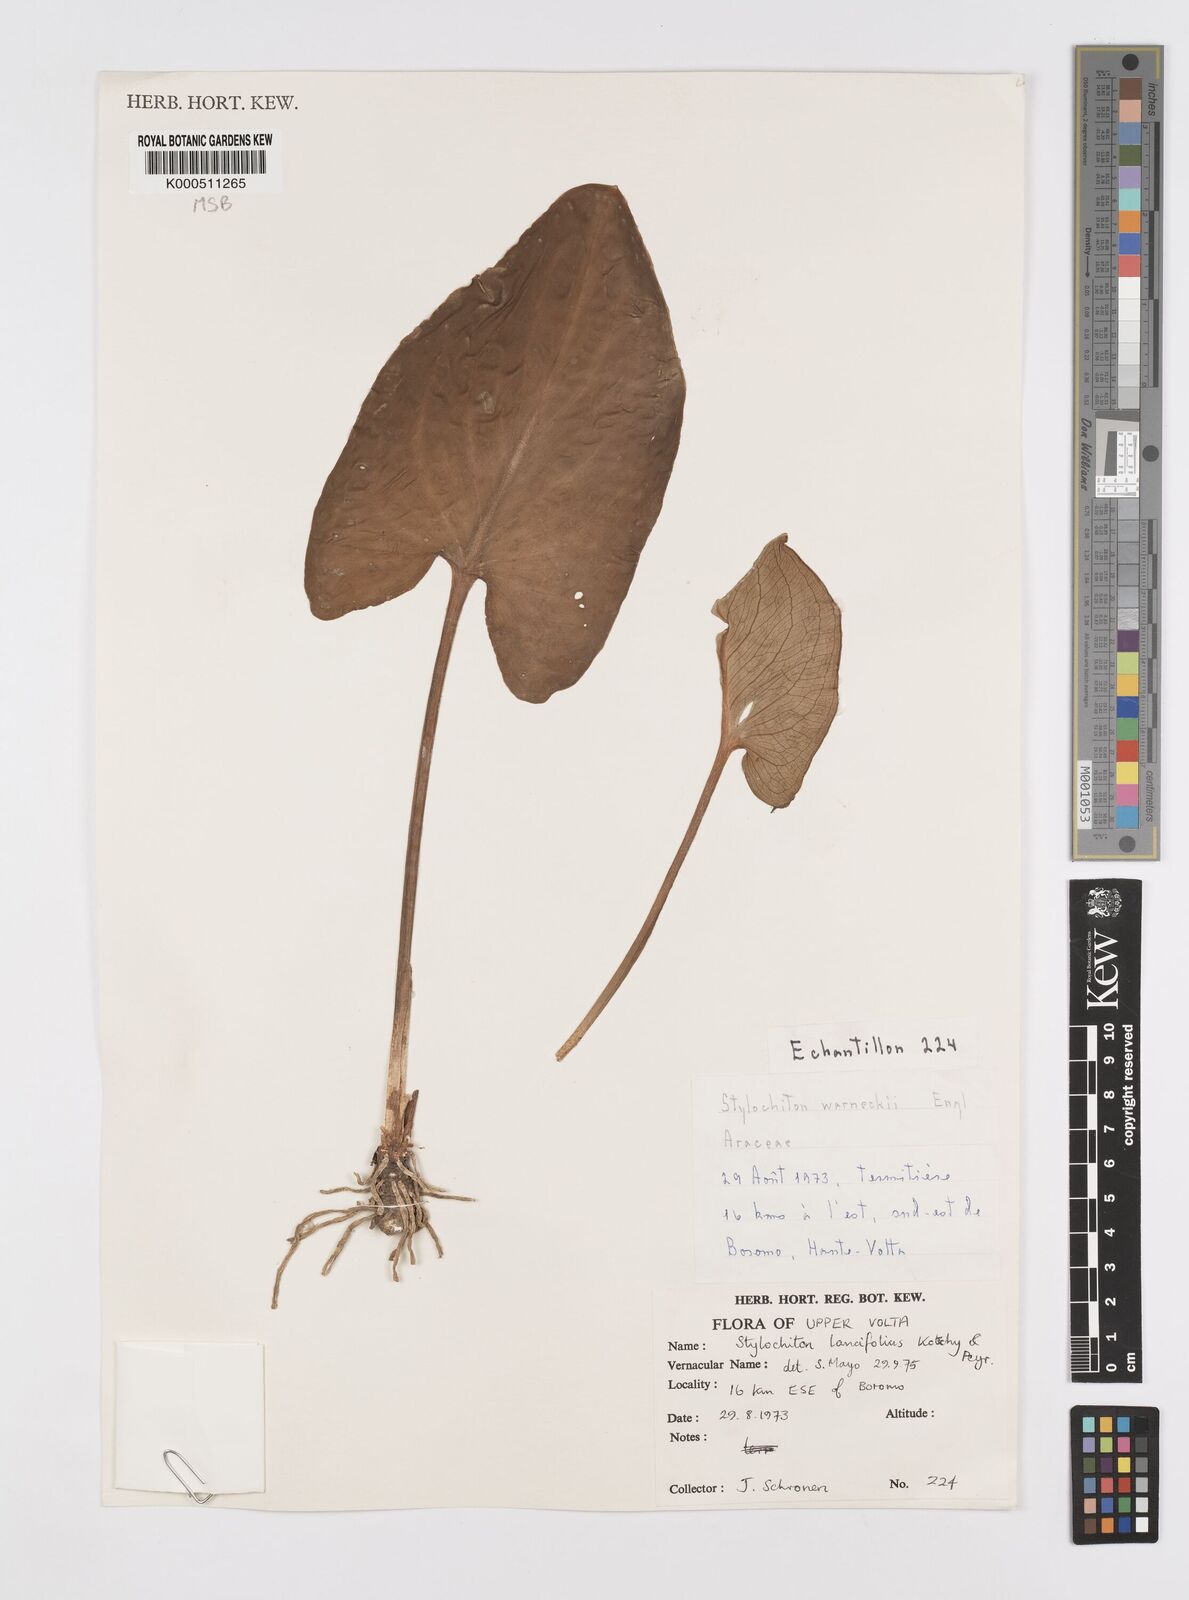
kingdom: Plantae
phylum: Tracheophyta
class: Liliopsida
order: Alismatales
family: Araceae
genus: Stylochaeton
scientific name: Stylochaeton lancifolium
